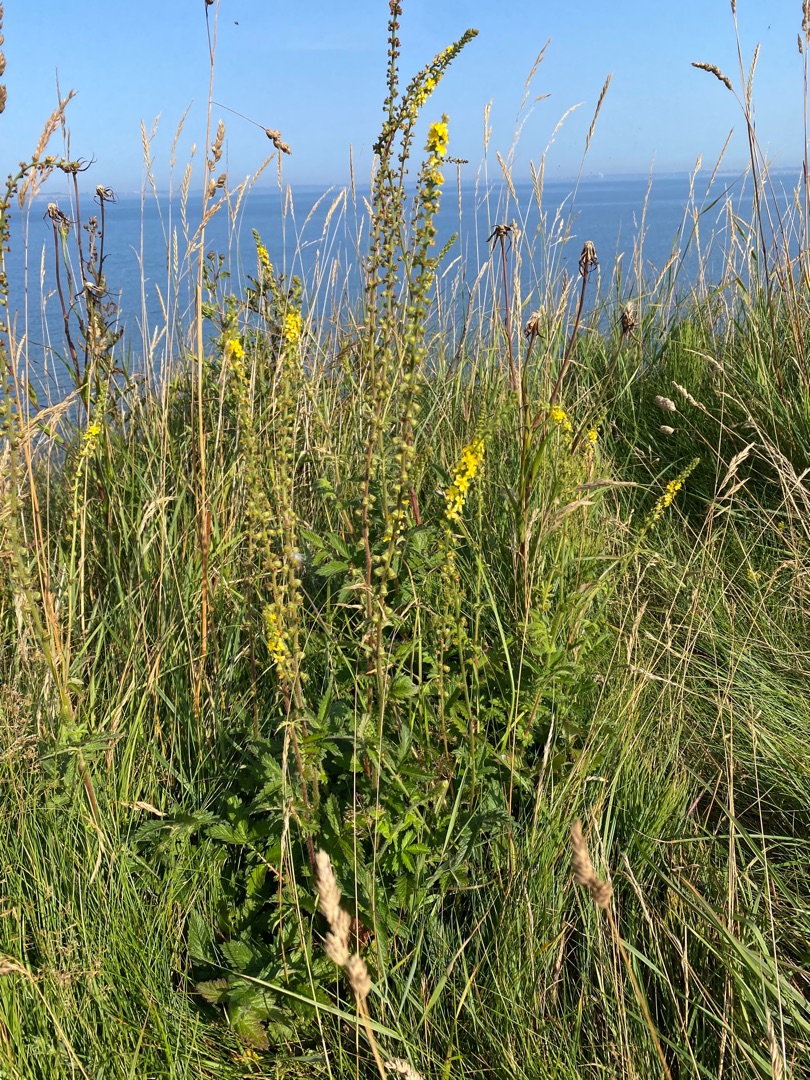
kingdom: Plantae
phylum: Tracheophyta
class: Magnoliopsida
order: Rosales
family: Rosaceae
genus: Agrimonia
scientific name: Agrimonia eupatoria
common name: Almindelig agermåne
